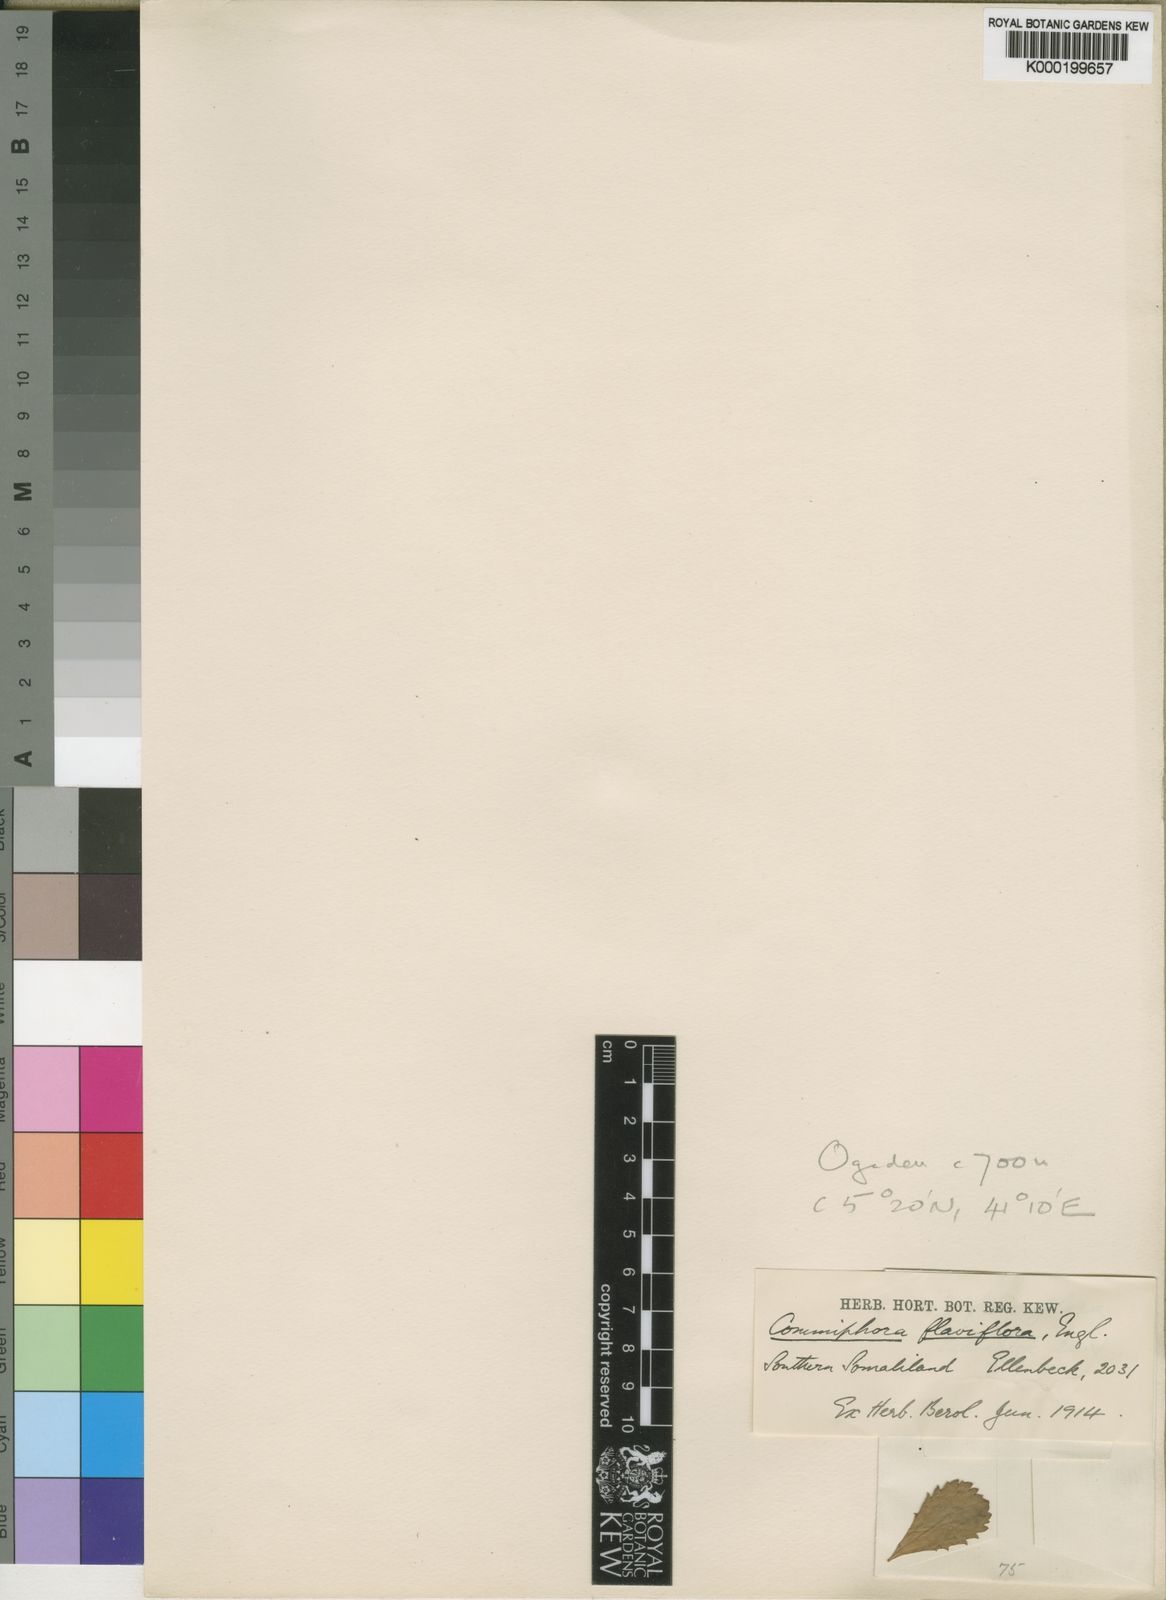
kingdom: Plantae
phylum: Tracheophyta
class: Magnoliopsida
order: Sapindales
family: Burseraceae
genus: Commiphora
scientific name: Commiphora kua
